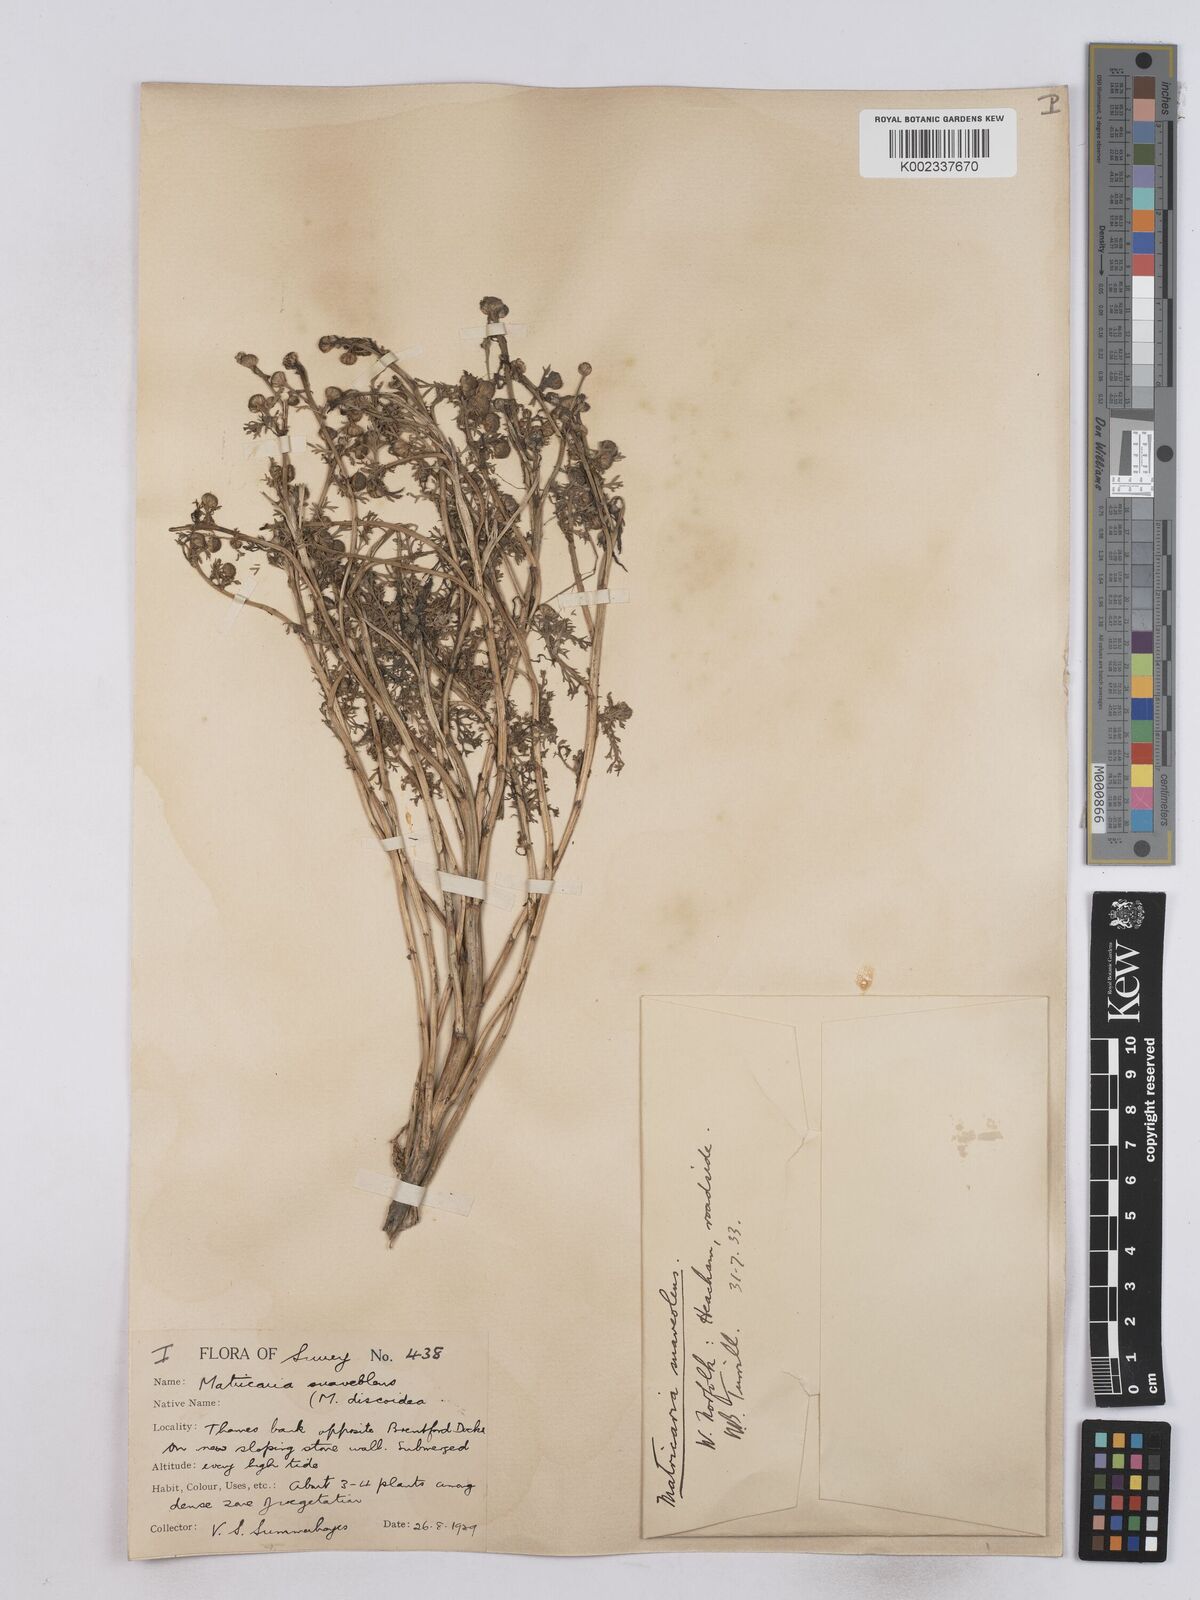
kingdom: Plantae
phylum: Tracheophyta
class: Magnoliopsida
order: Asterales
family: Asteraceae
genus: Matricaria
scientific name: Matricaria discoidea
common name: Disc mayweed
